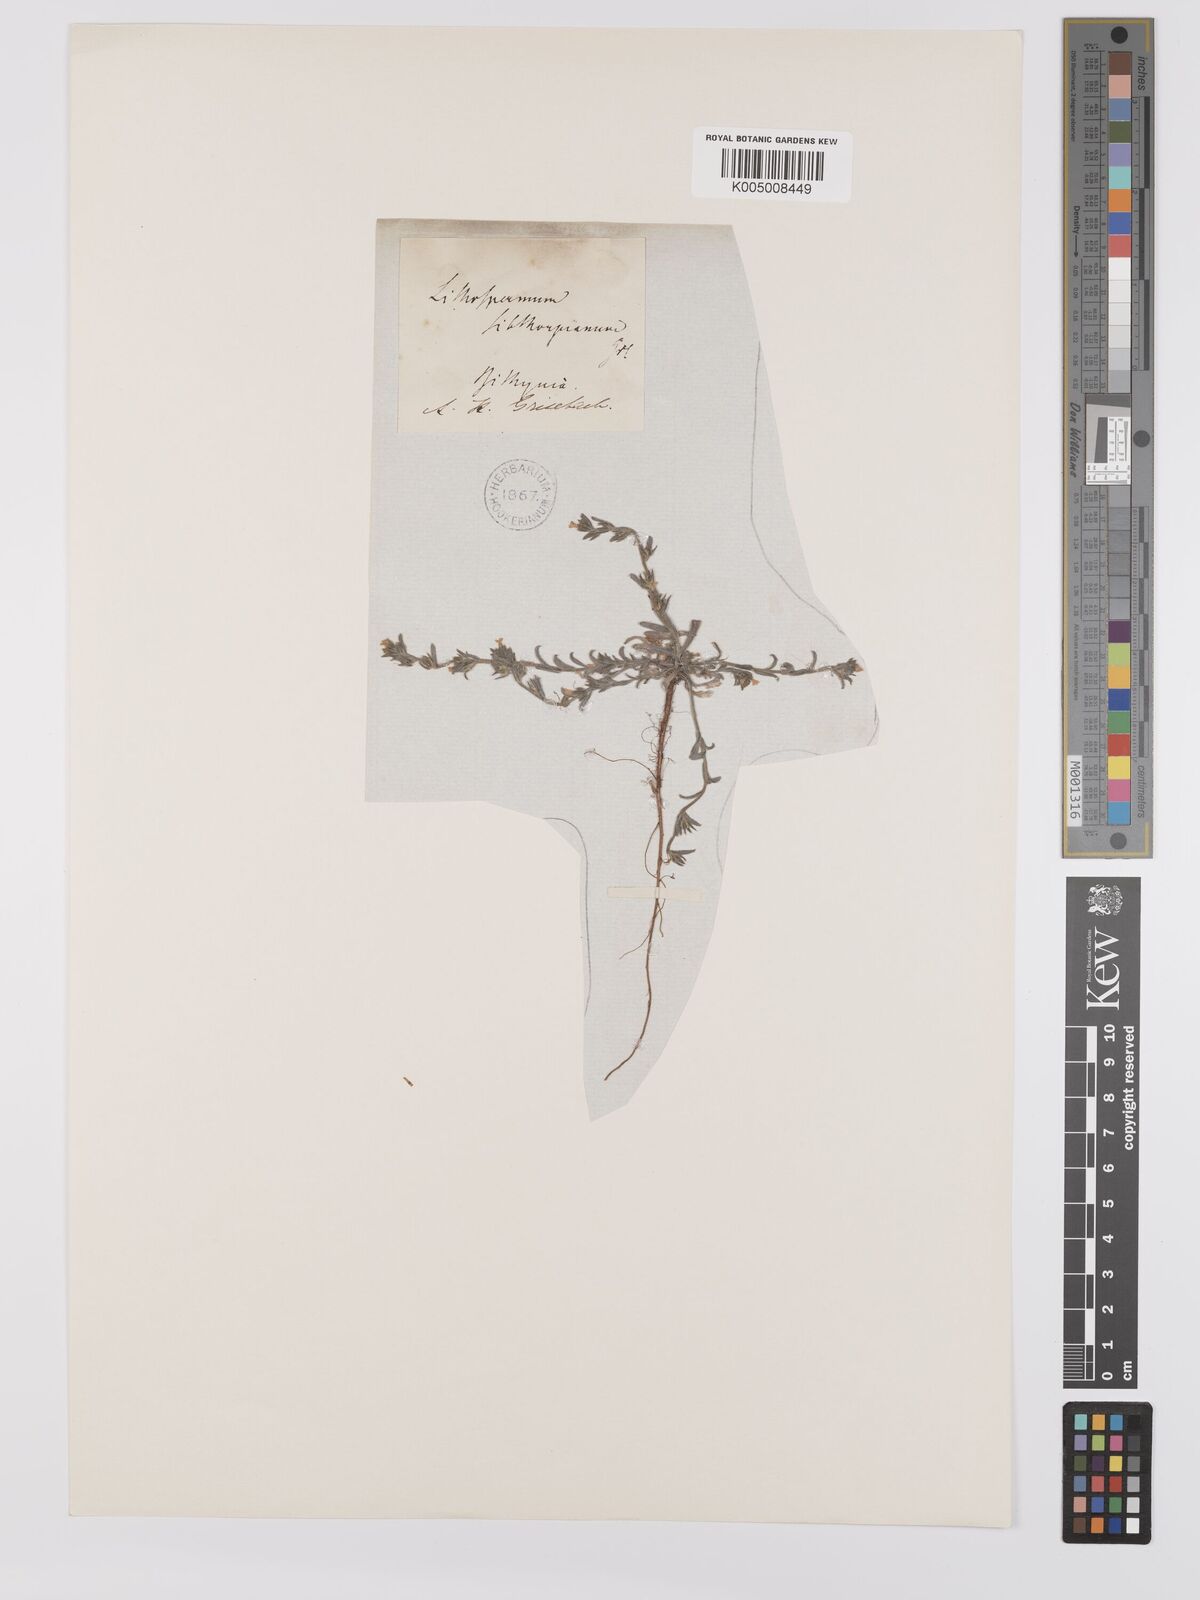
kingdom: Plantae
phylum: Tracheophyta
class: Magnoliopsida
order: Boraginales
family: Boraginaceae
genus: Buglossoides
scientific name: Buglossoides arvensis
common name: Corn gromwell
